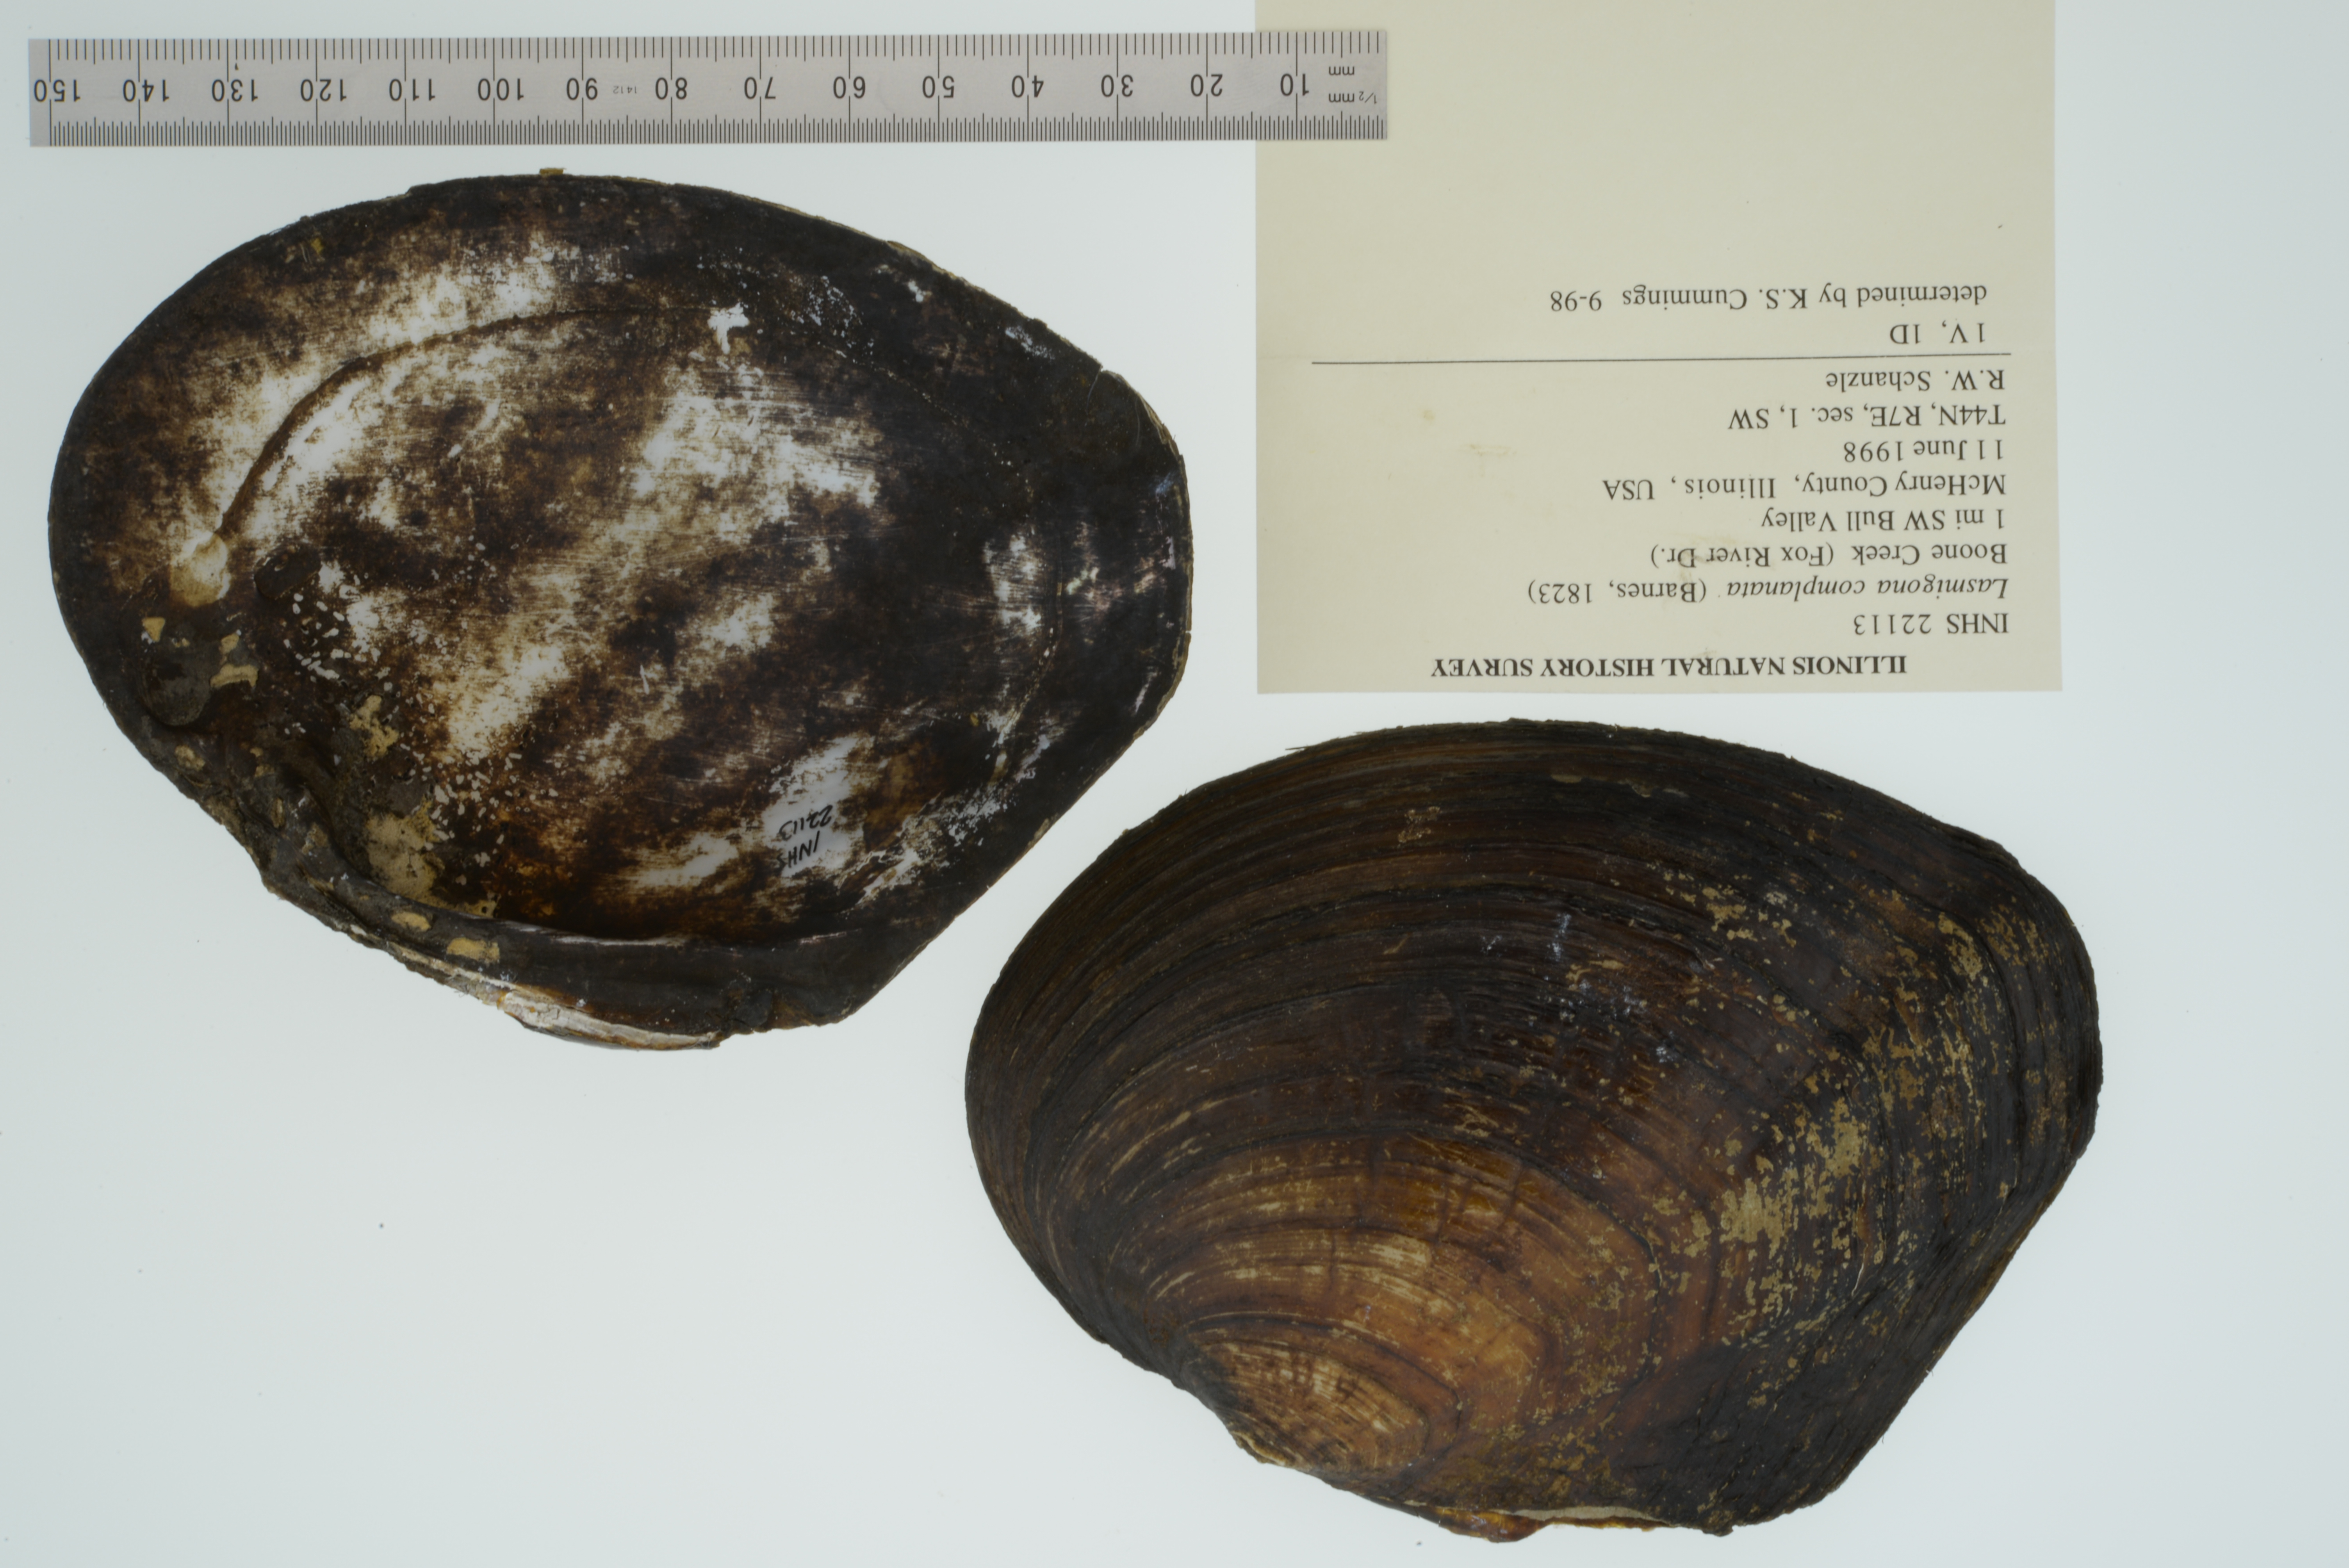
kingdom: Animalia
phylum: Mollusca
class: Bivalvia
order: Unionida
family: Unionidae
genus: Lasmigona
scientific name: Lasmigona complanata
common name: White heelsplitter
